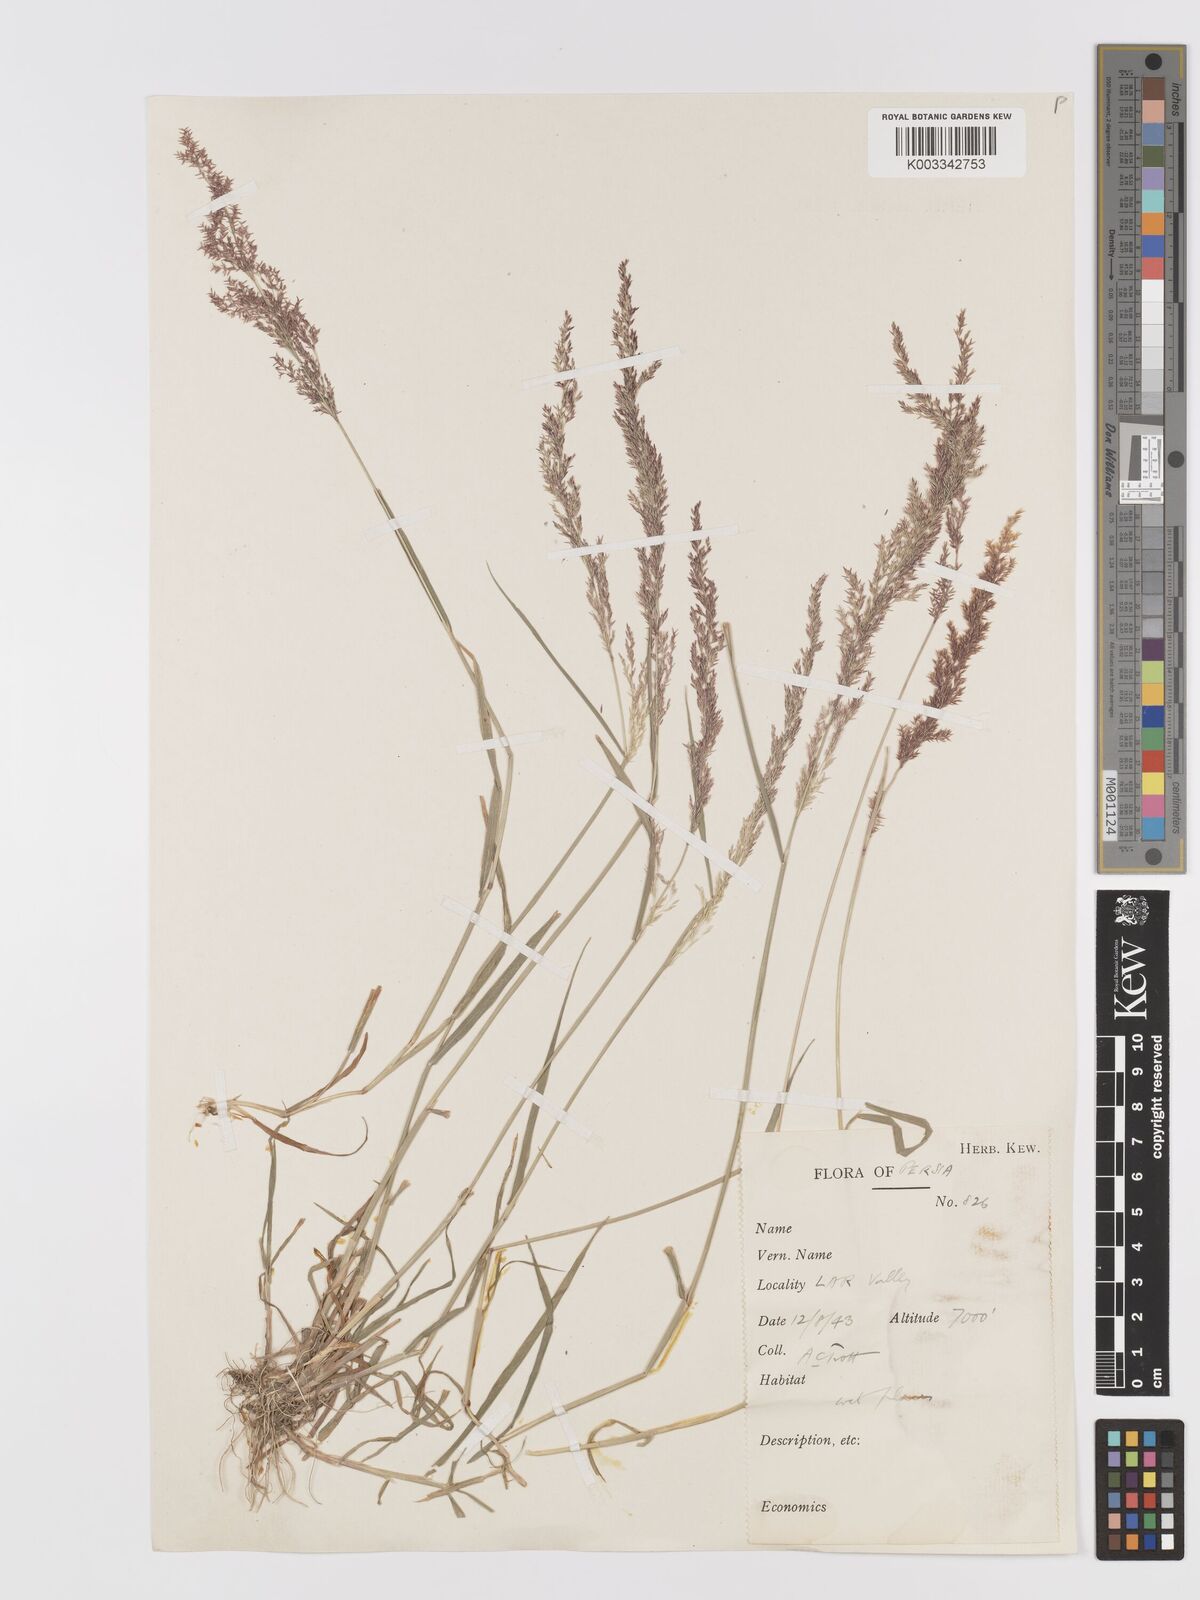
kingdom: Plantae
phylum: Tracheophyta
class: Liliopsida
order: Poales
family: Poaceae
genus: Agrostis
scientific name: Agrostis stolonifera
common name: Creeping bentgrass
